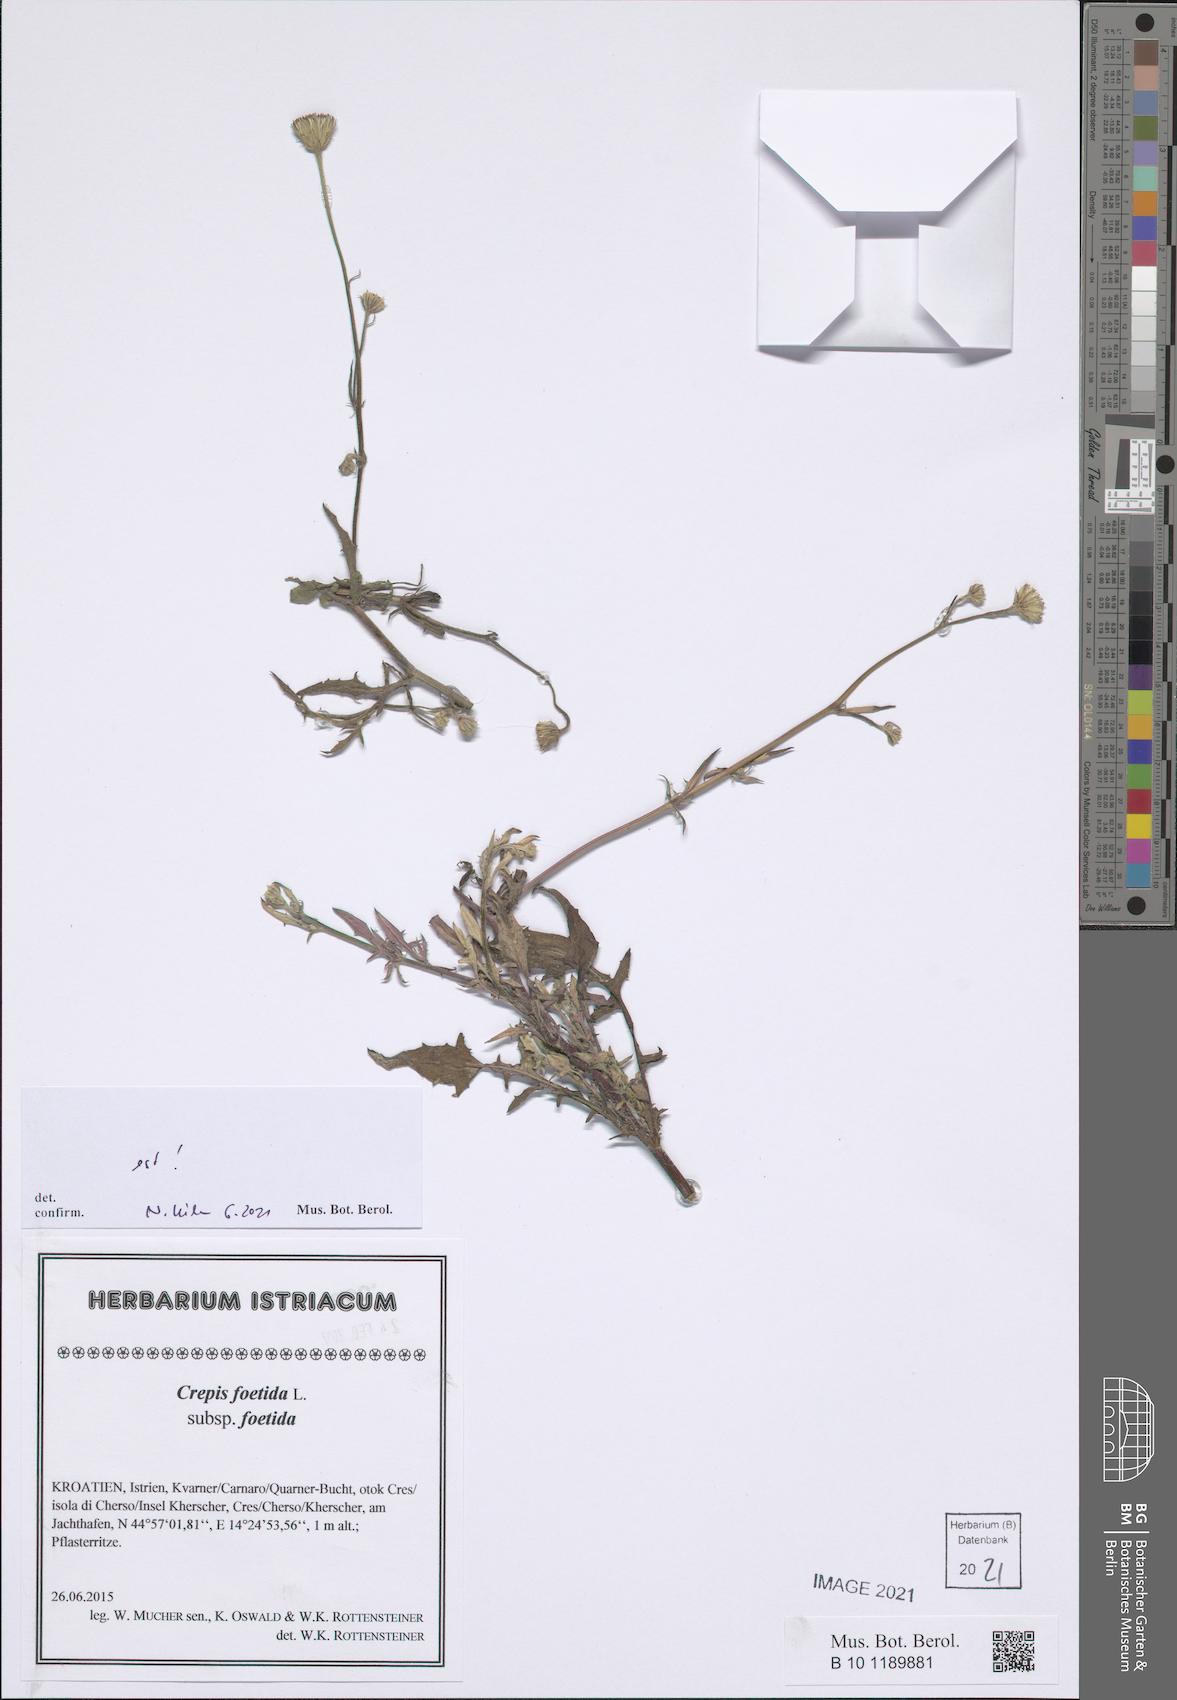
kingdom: Plantae
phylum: Tracheophyta
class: Magnoliopsida
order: Asterales
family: Asteraceae
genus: Crepis
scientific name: Crepis foetida
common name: Stinking hawk's-beard
